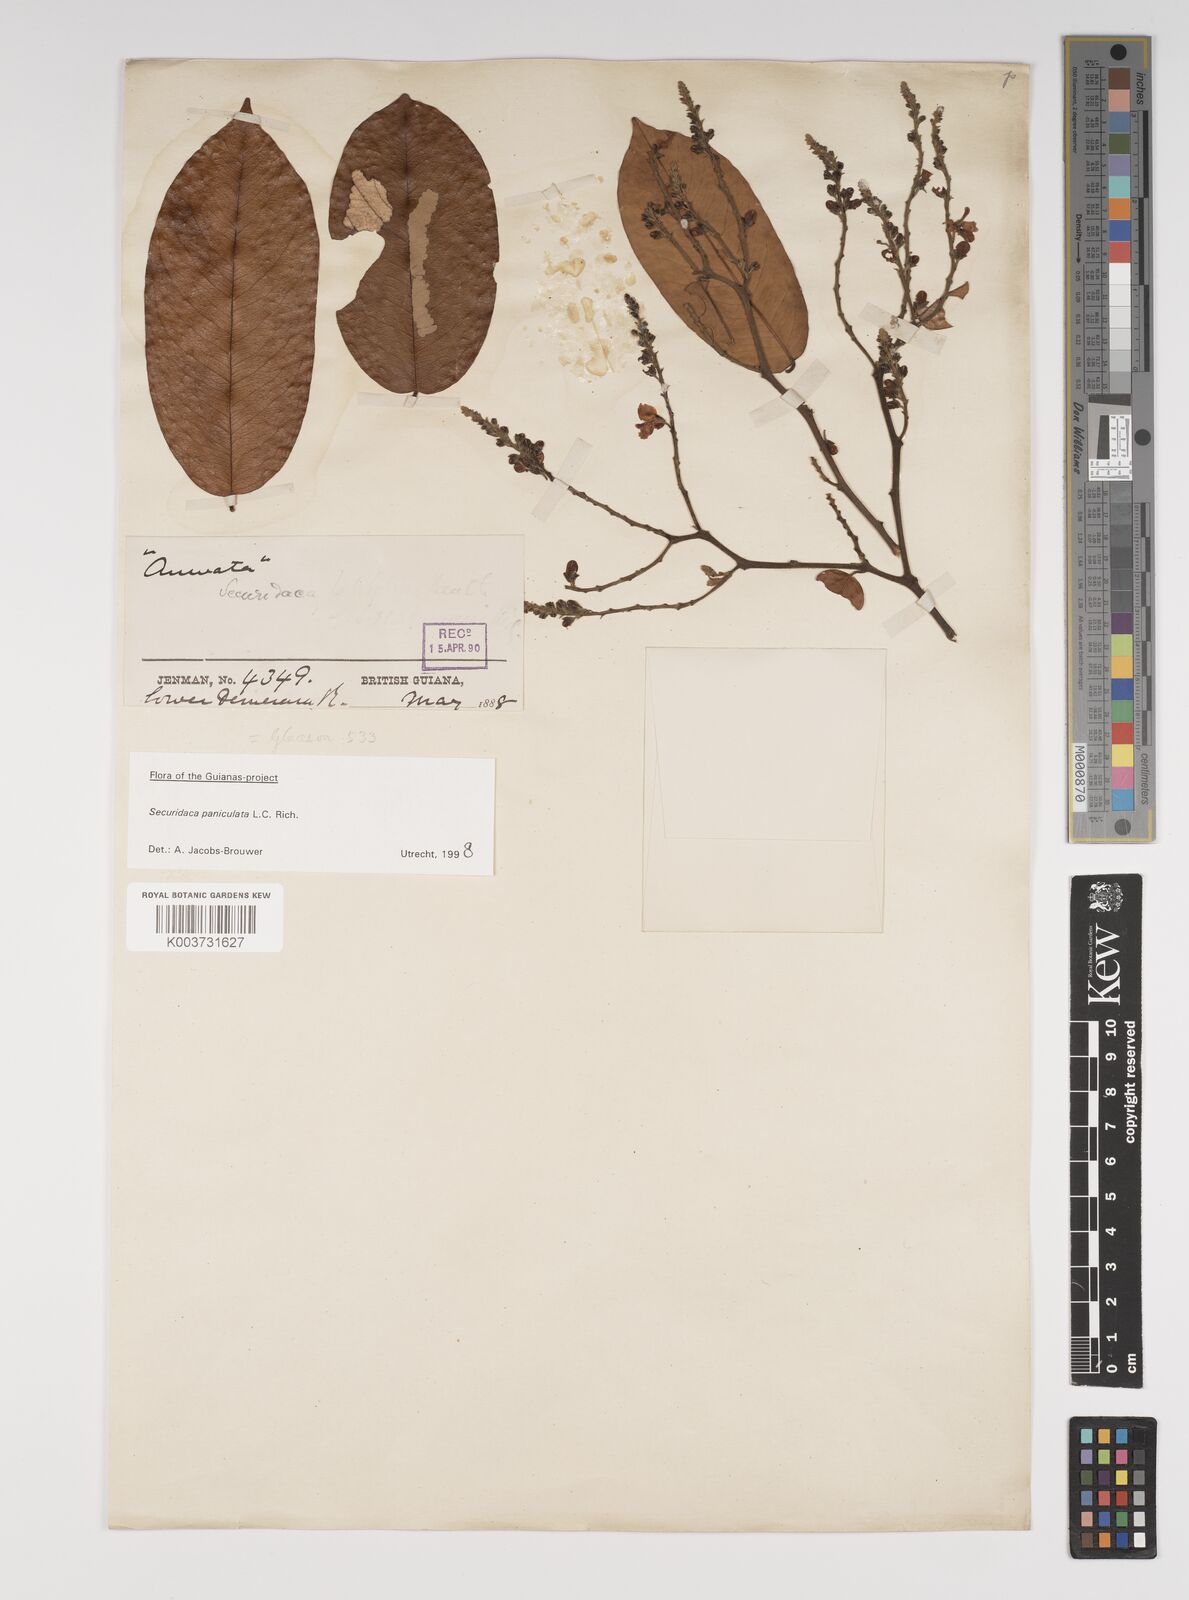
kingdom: Plantae
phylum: Tracheophyta
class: Magnoliopsida
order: Fabales
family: Polygalaceae
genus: Securidaca
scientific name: Securidaca paniculata
